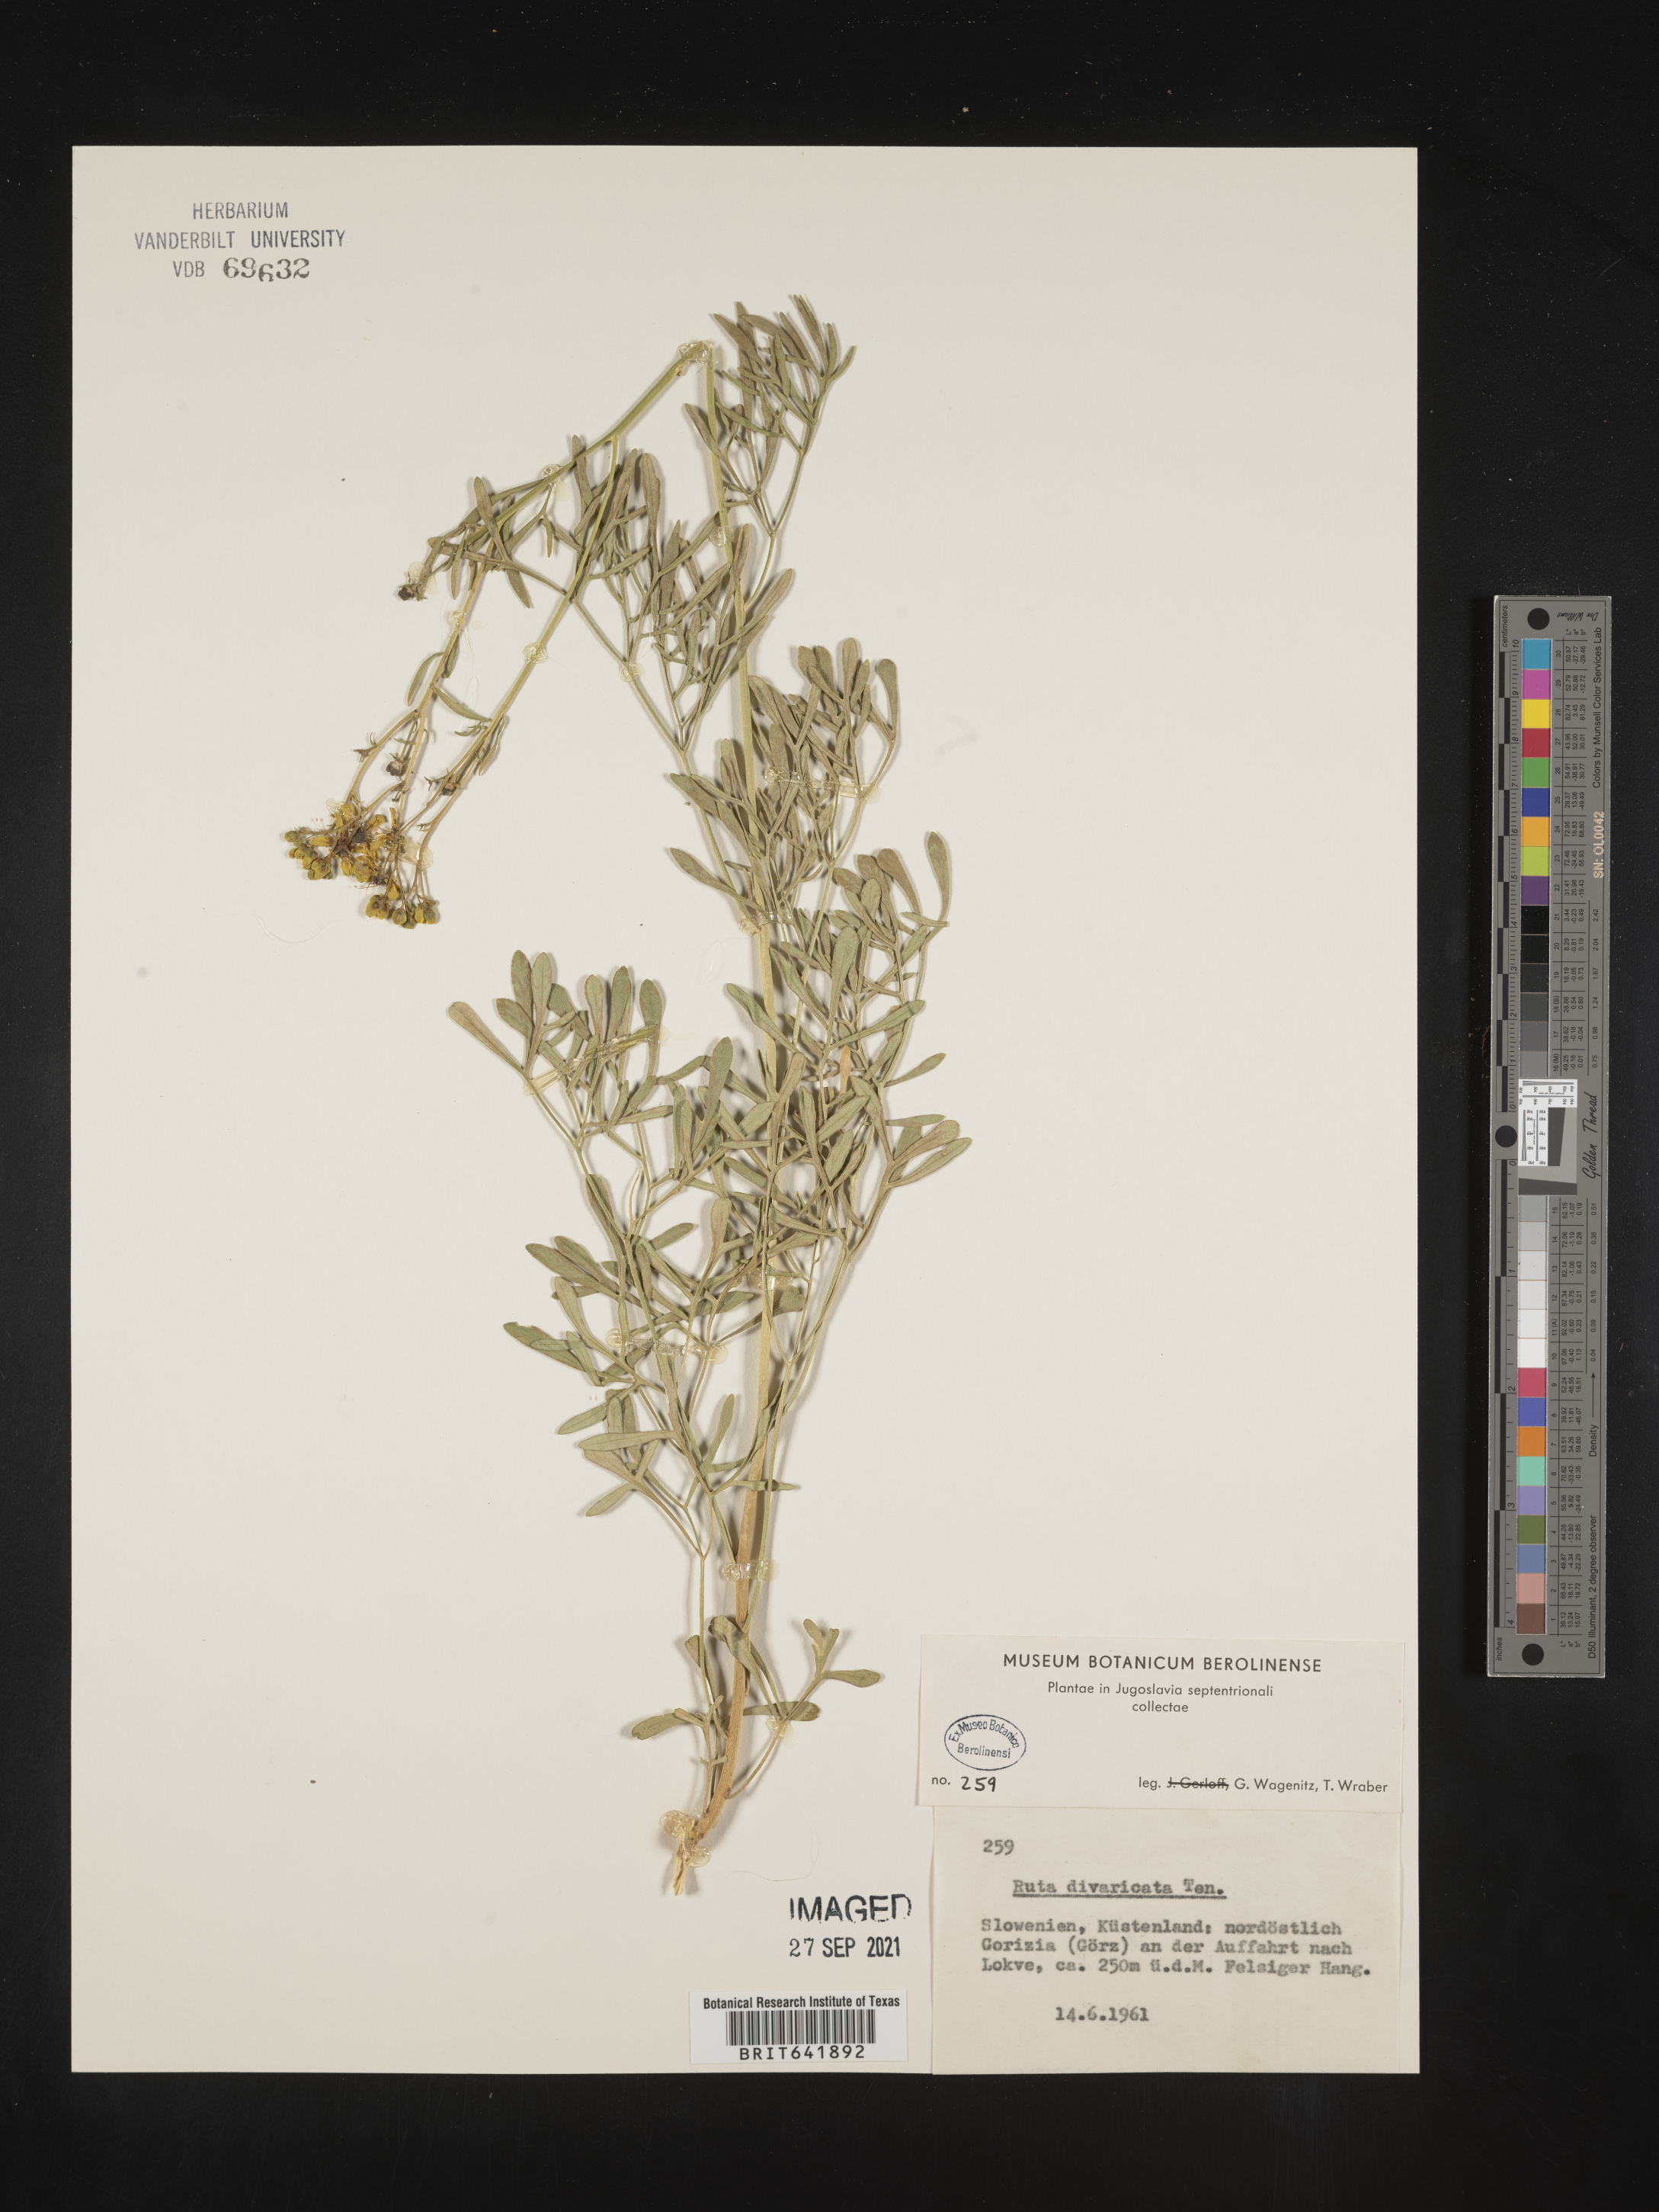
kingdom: Plantae
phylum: Tracheophyta
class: Magnoliopsida
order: Sapindales
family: Rutaceae
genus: Ruta
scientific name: Ruta
